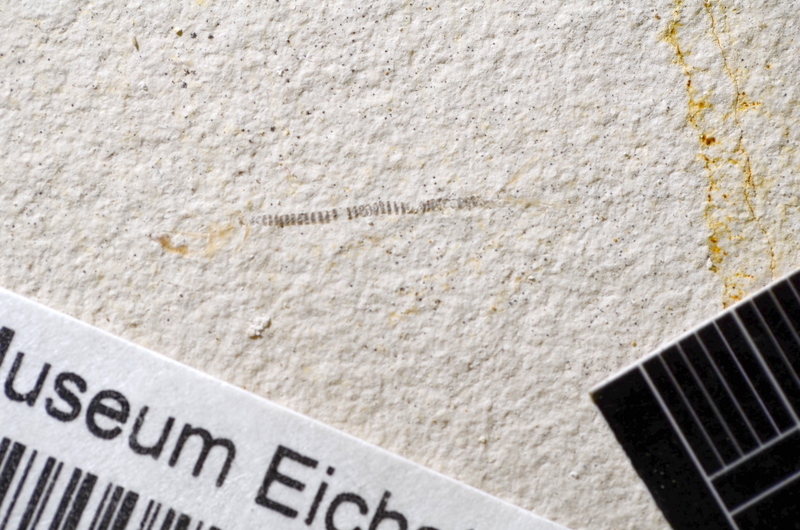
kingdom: Animalia
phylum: Chordata
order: Salmoniformes
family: Orthogonikleithridae
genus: Orthogonikleithrus
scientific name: Orthogonikleithrus hoelli
